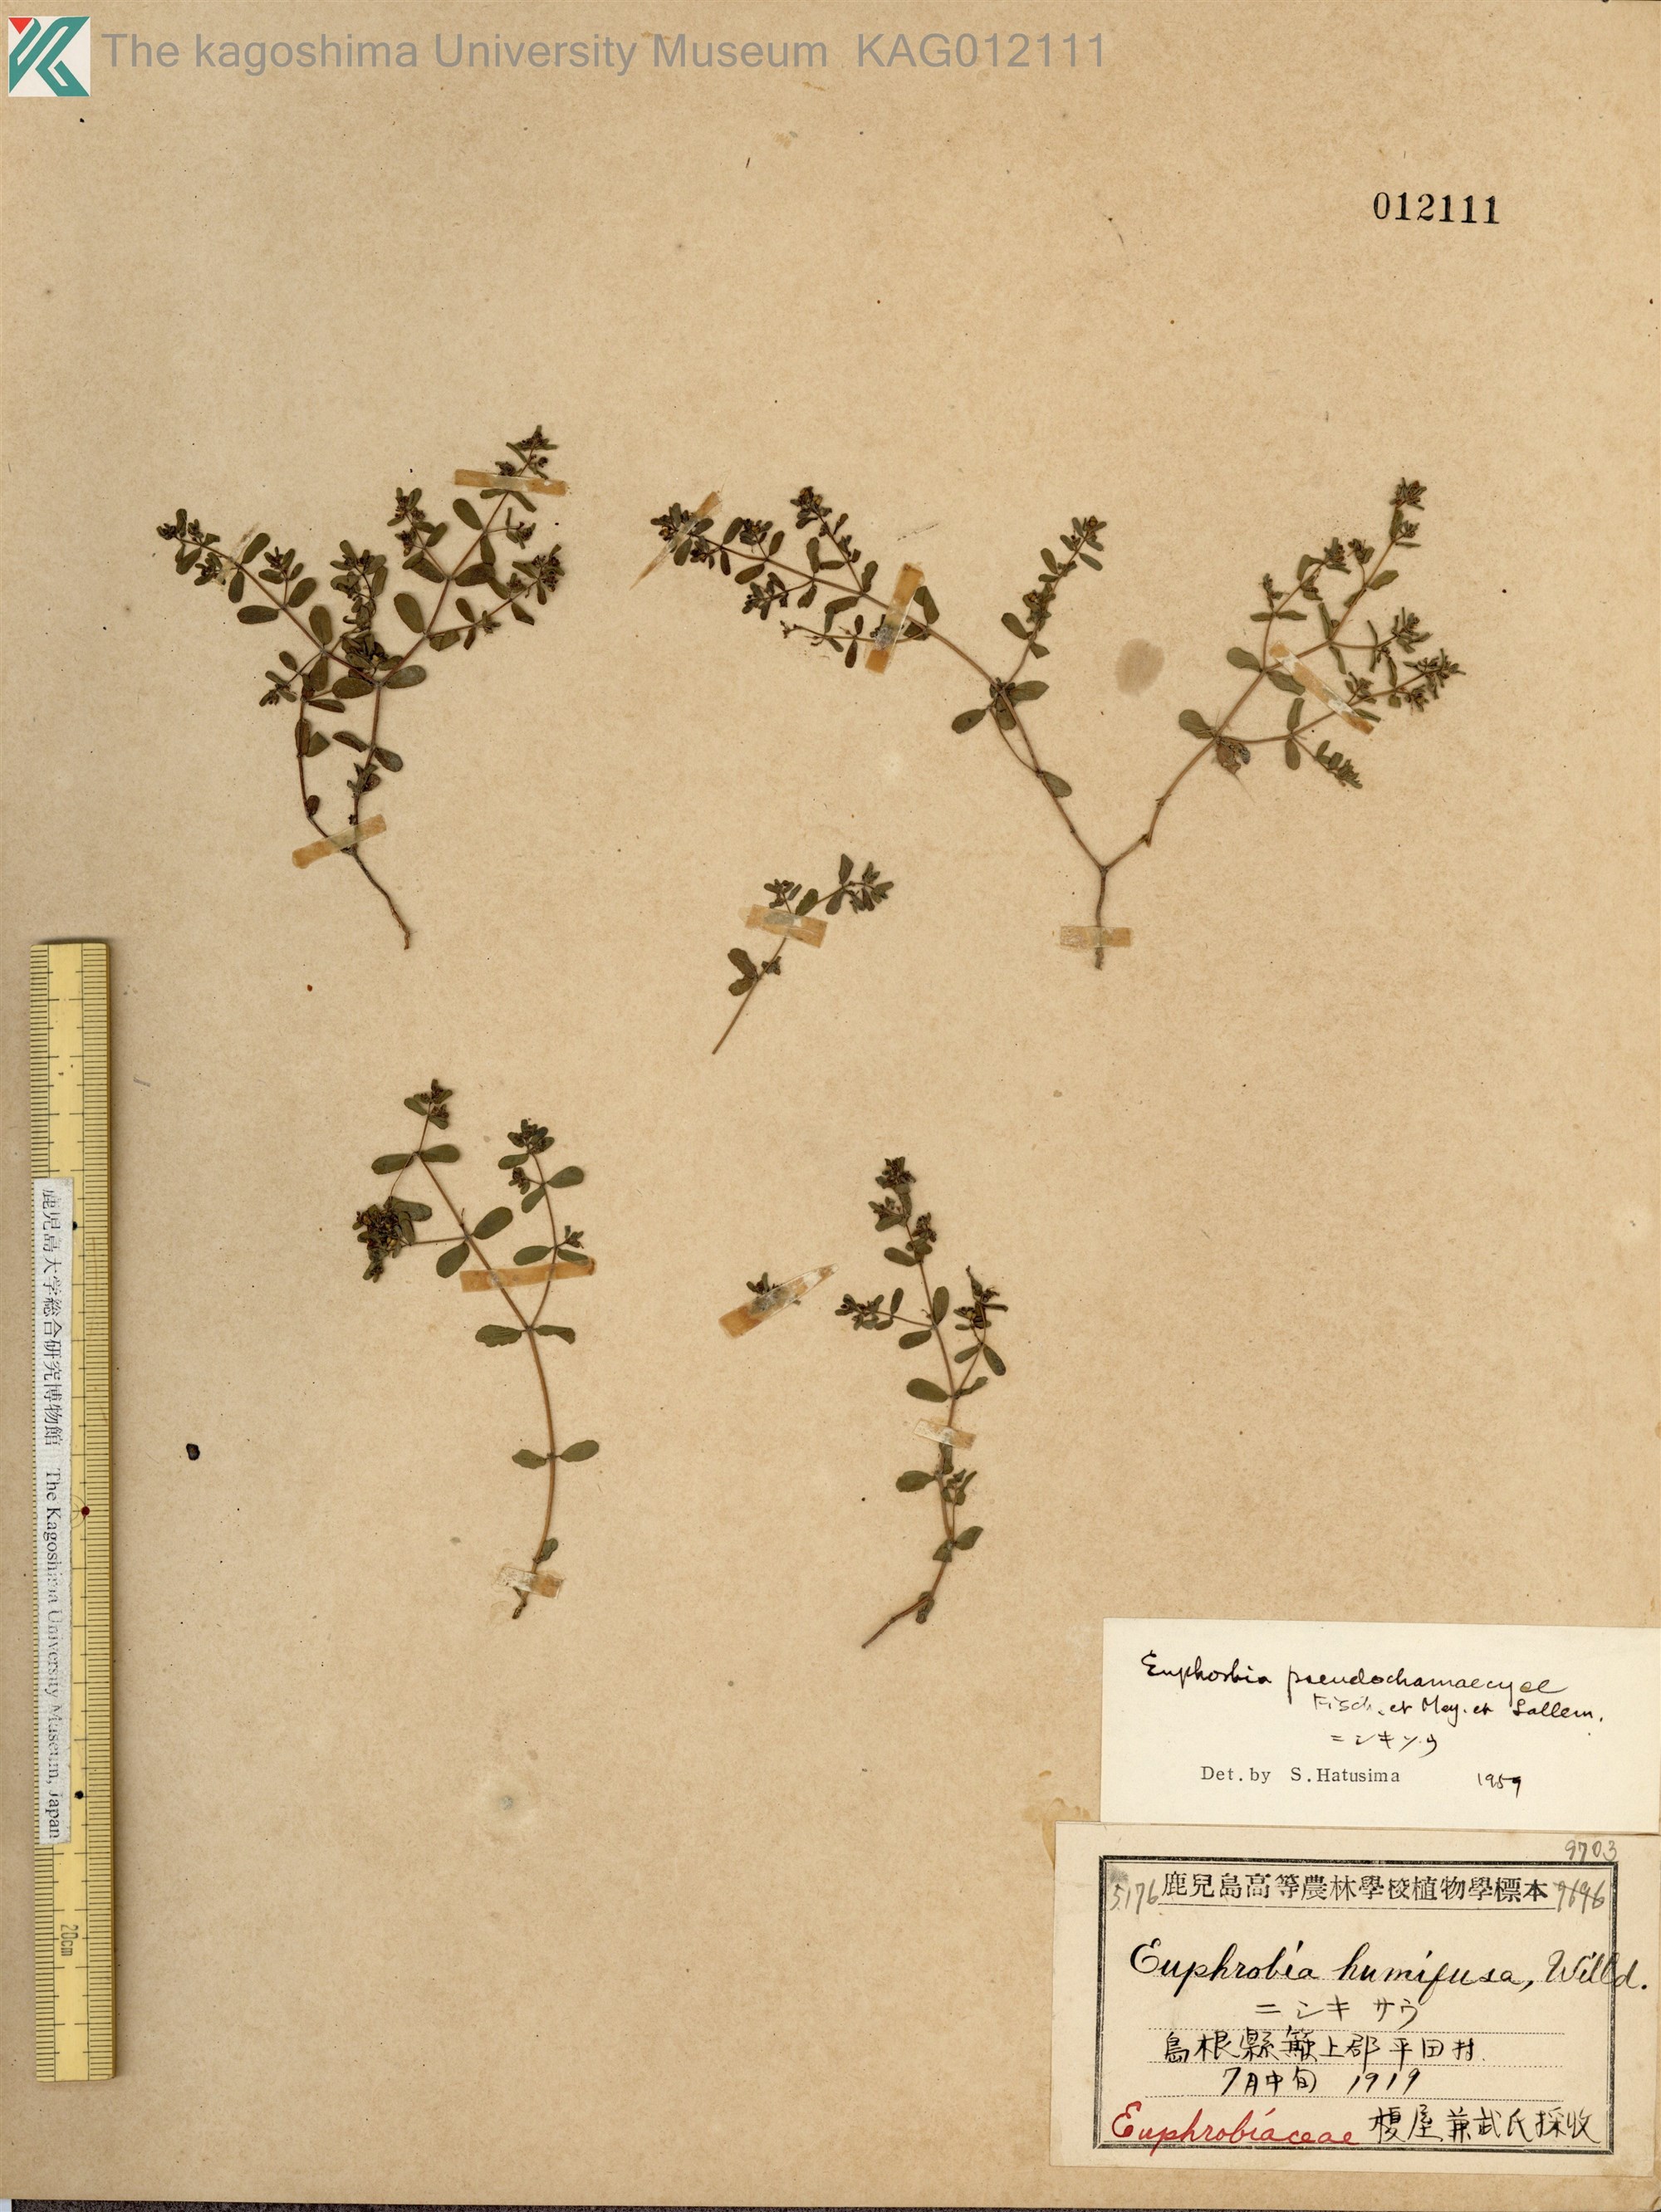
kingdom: Plantae
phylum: Tracheophyta
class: Magnoliopsida
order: Malpighiales
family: Euphorbiaceae
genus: Euphorbia
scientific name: Euphorbia humifusa
